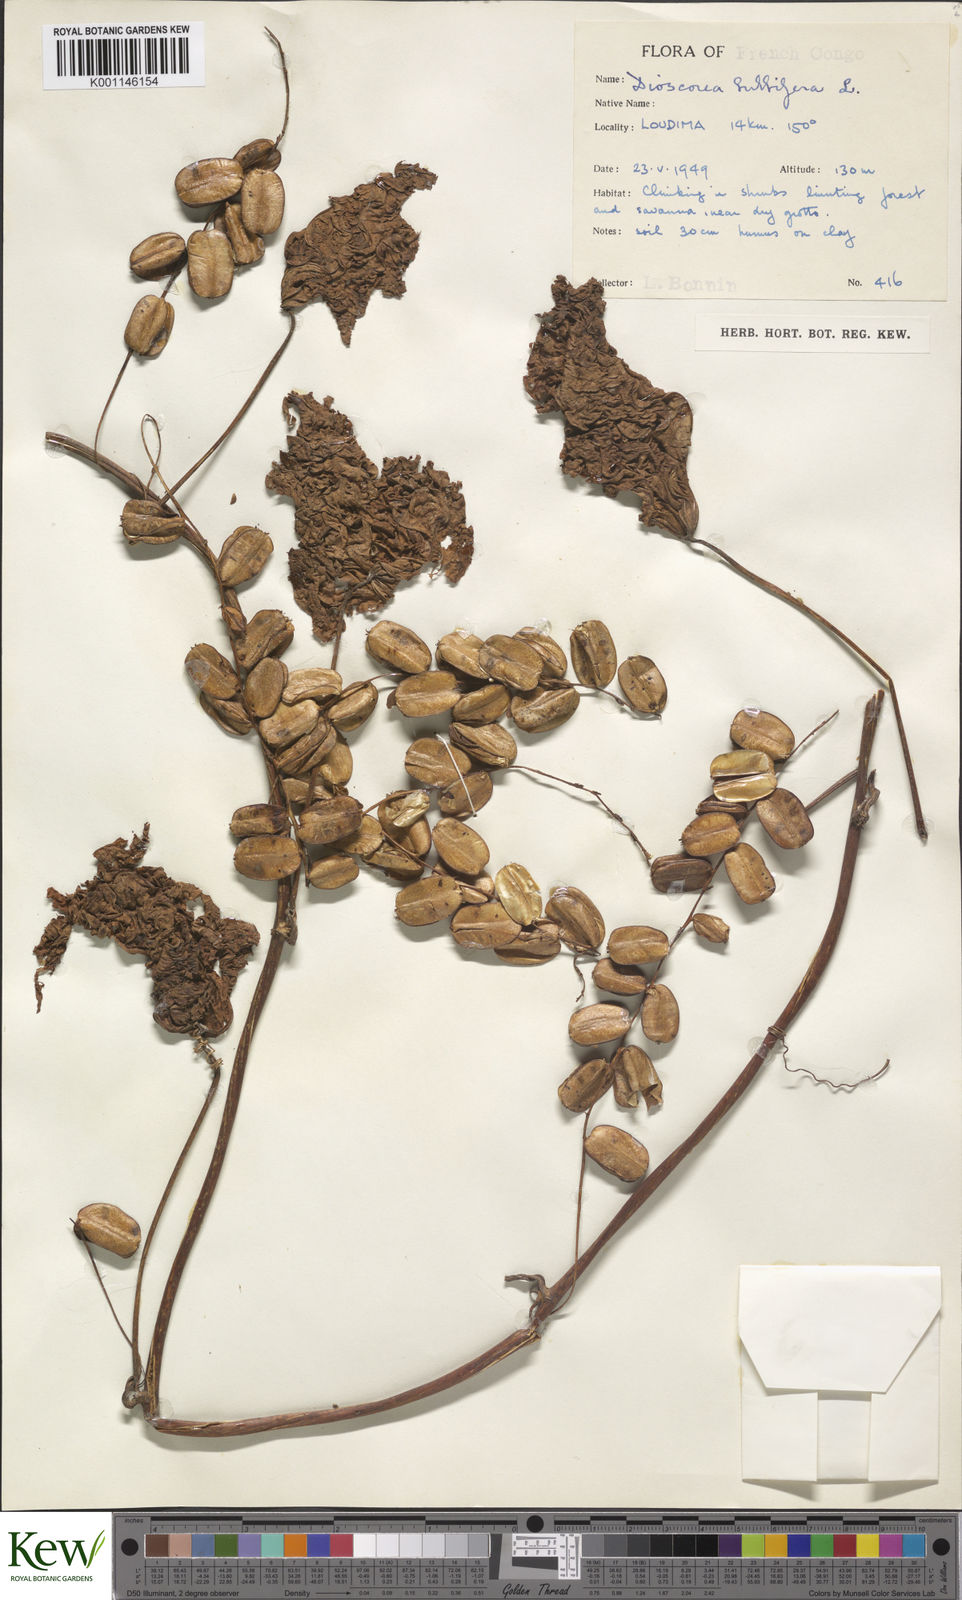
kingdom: Plantae
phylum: Tracheophyta
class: Liliopsida
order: Dioscoreales
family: Dioscoreaceae
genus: Dioscorea
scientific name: Dioscorea bulbifera
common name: Air yam
